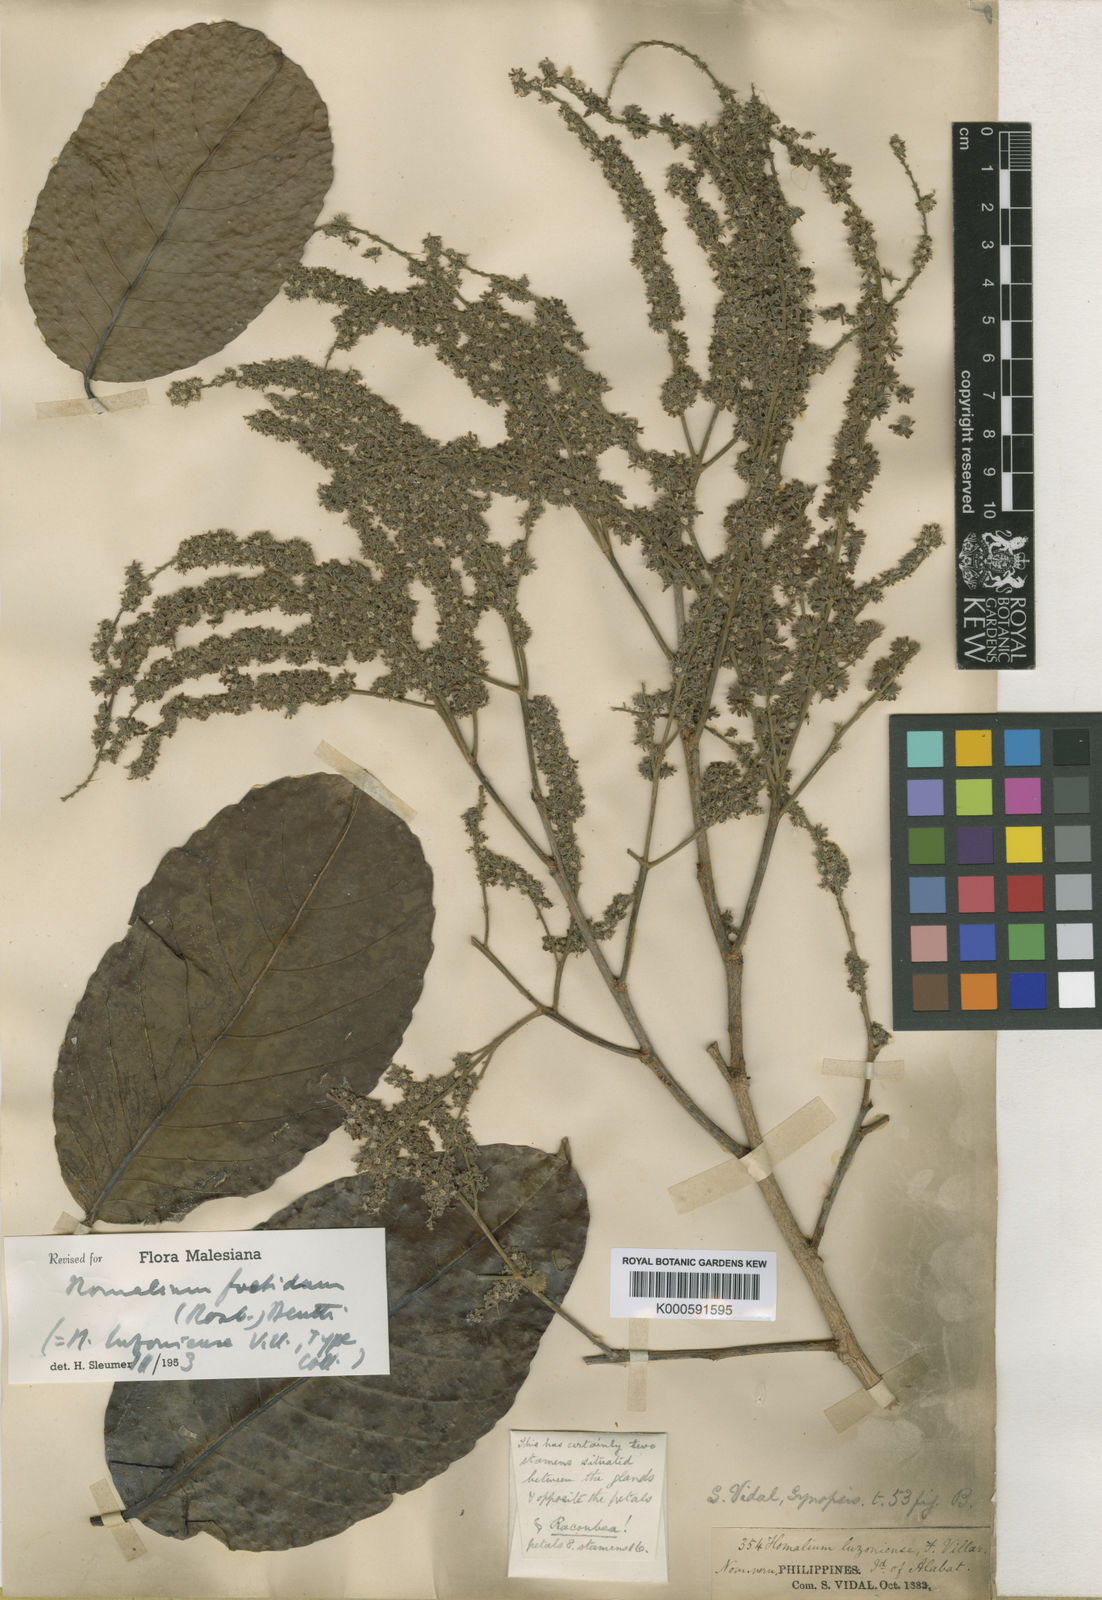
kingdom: Plantae
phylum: Tracheophyta
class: Magnoliopsida
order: Malpighiales
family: Salicaceae
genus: Homalium
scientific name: Homalium foetidum
